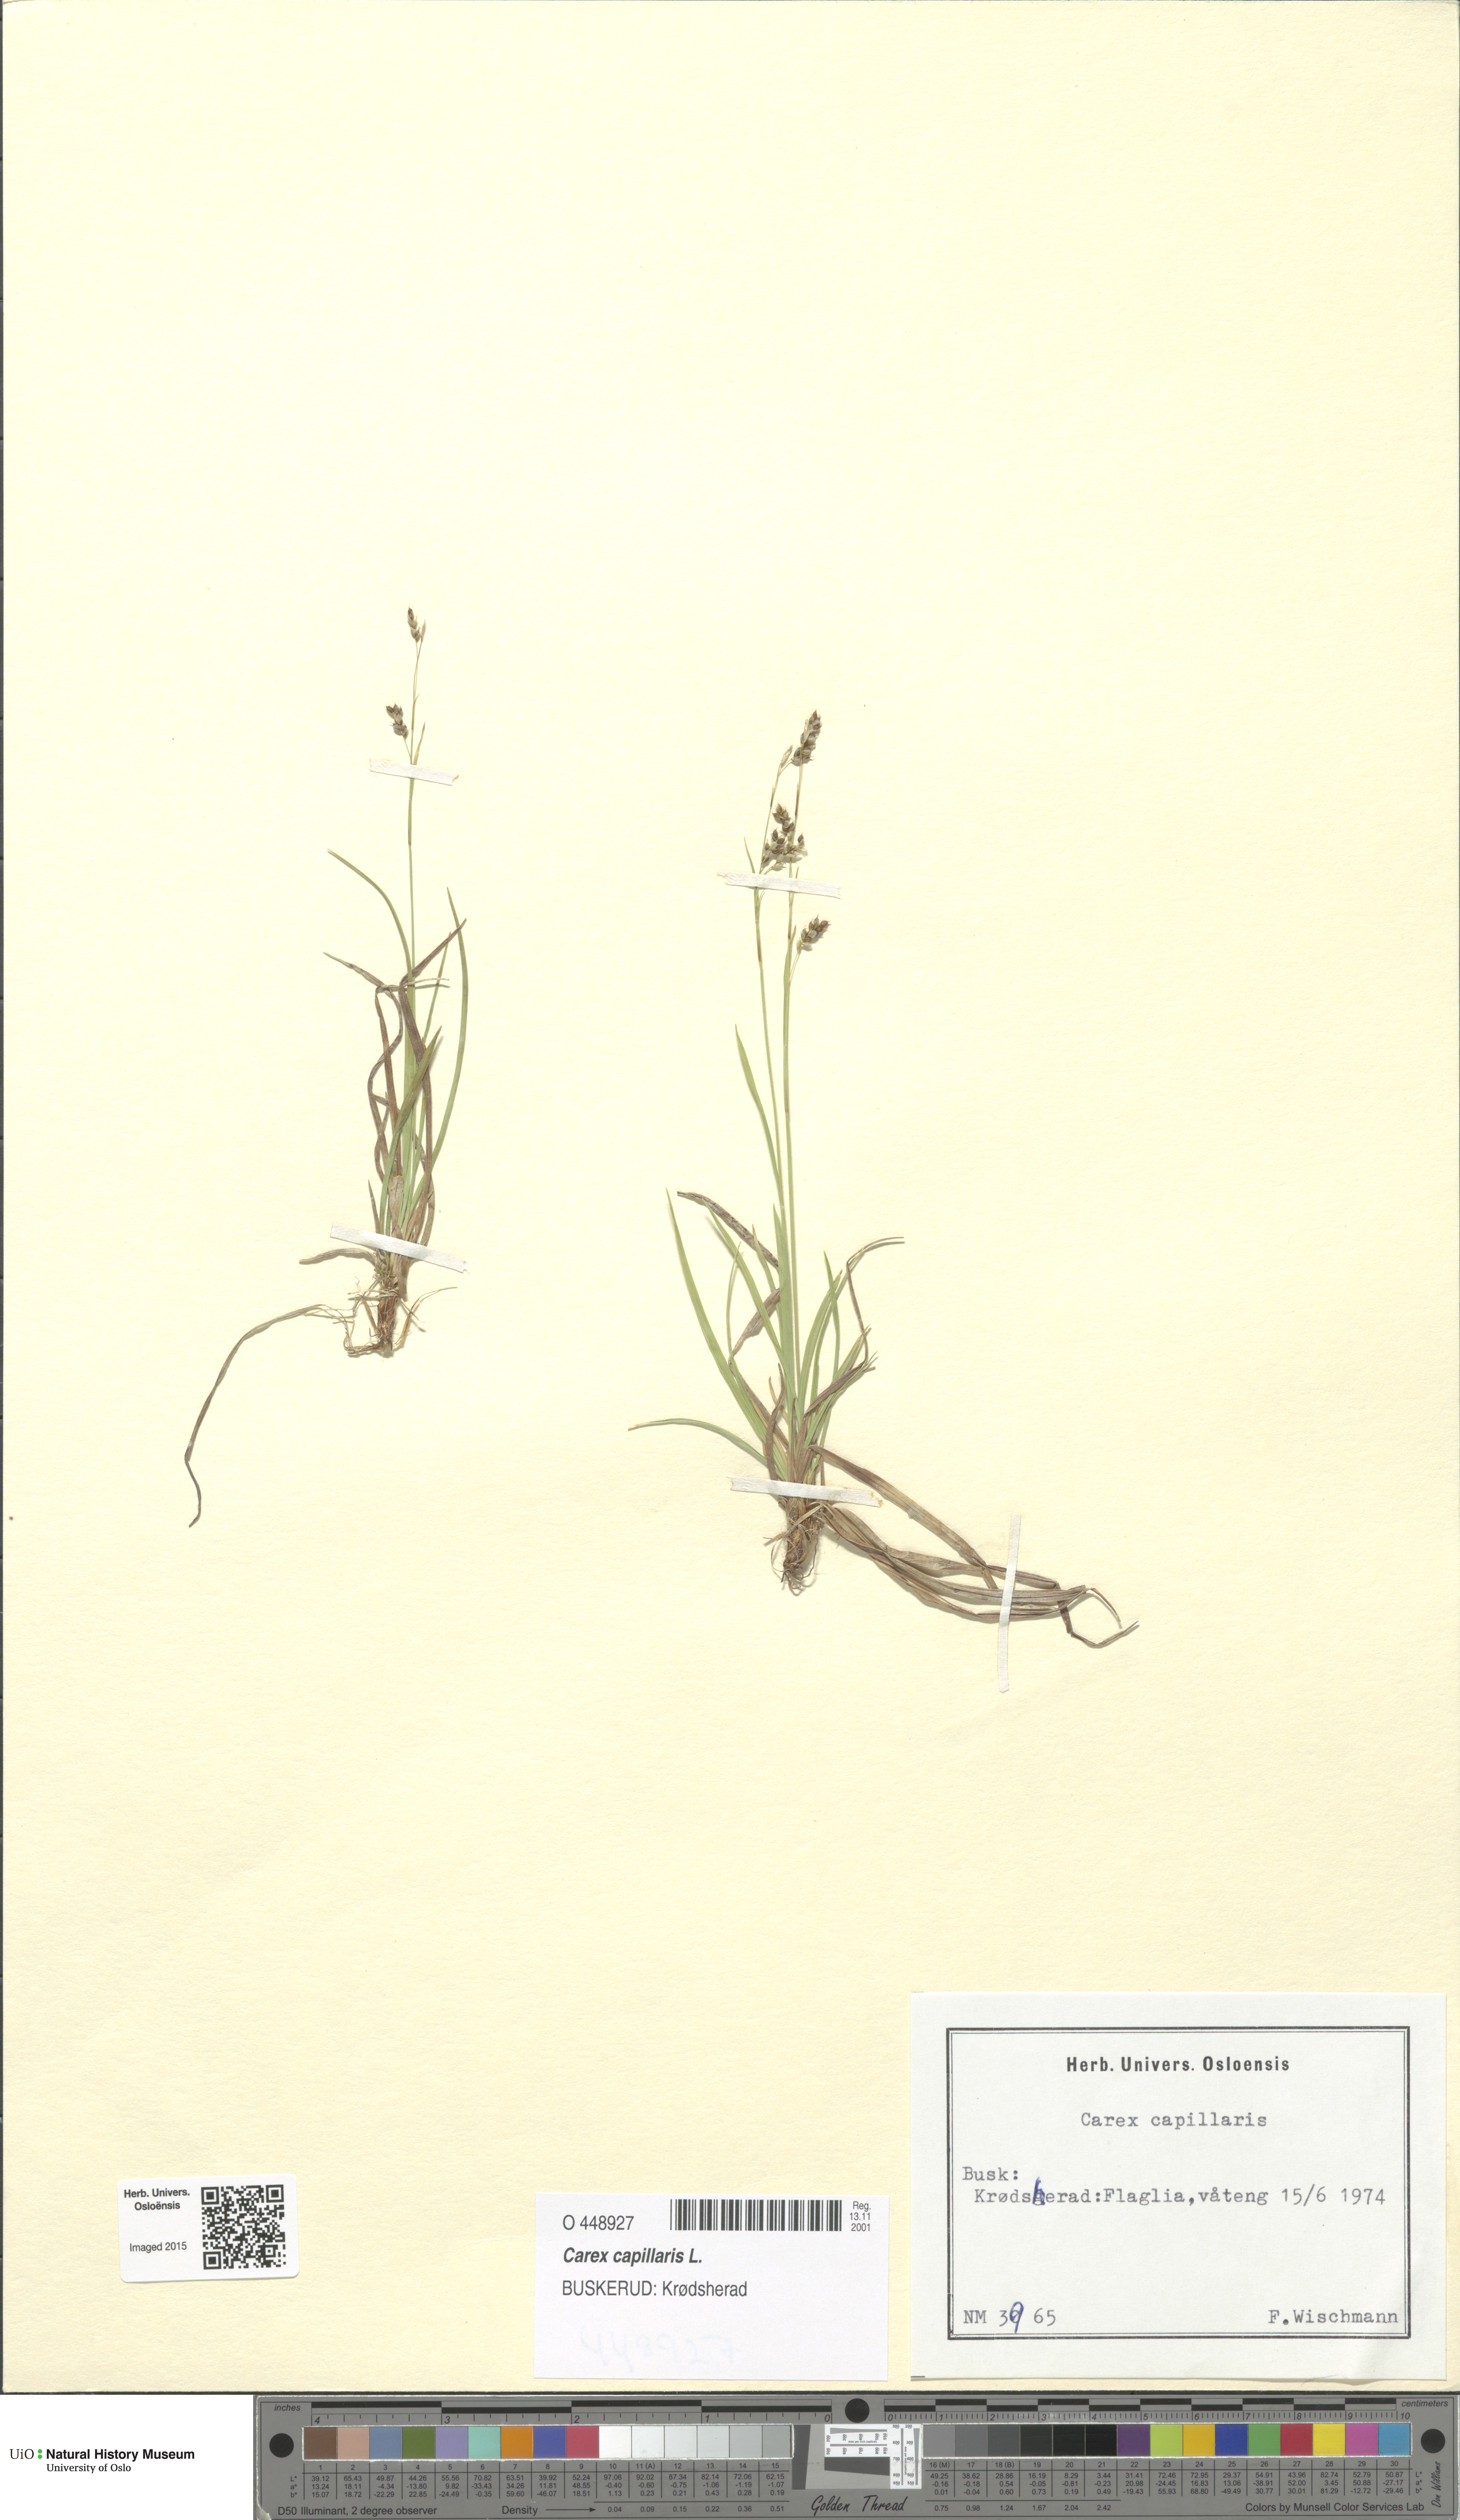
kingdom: Plantae
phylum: Tracheophyta
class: Liliopsida
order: Poales
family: Cyperaceae
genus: Carex
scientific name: Carex capillaris
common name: Hair sedge
